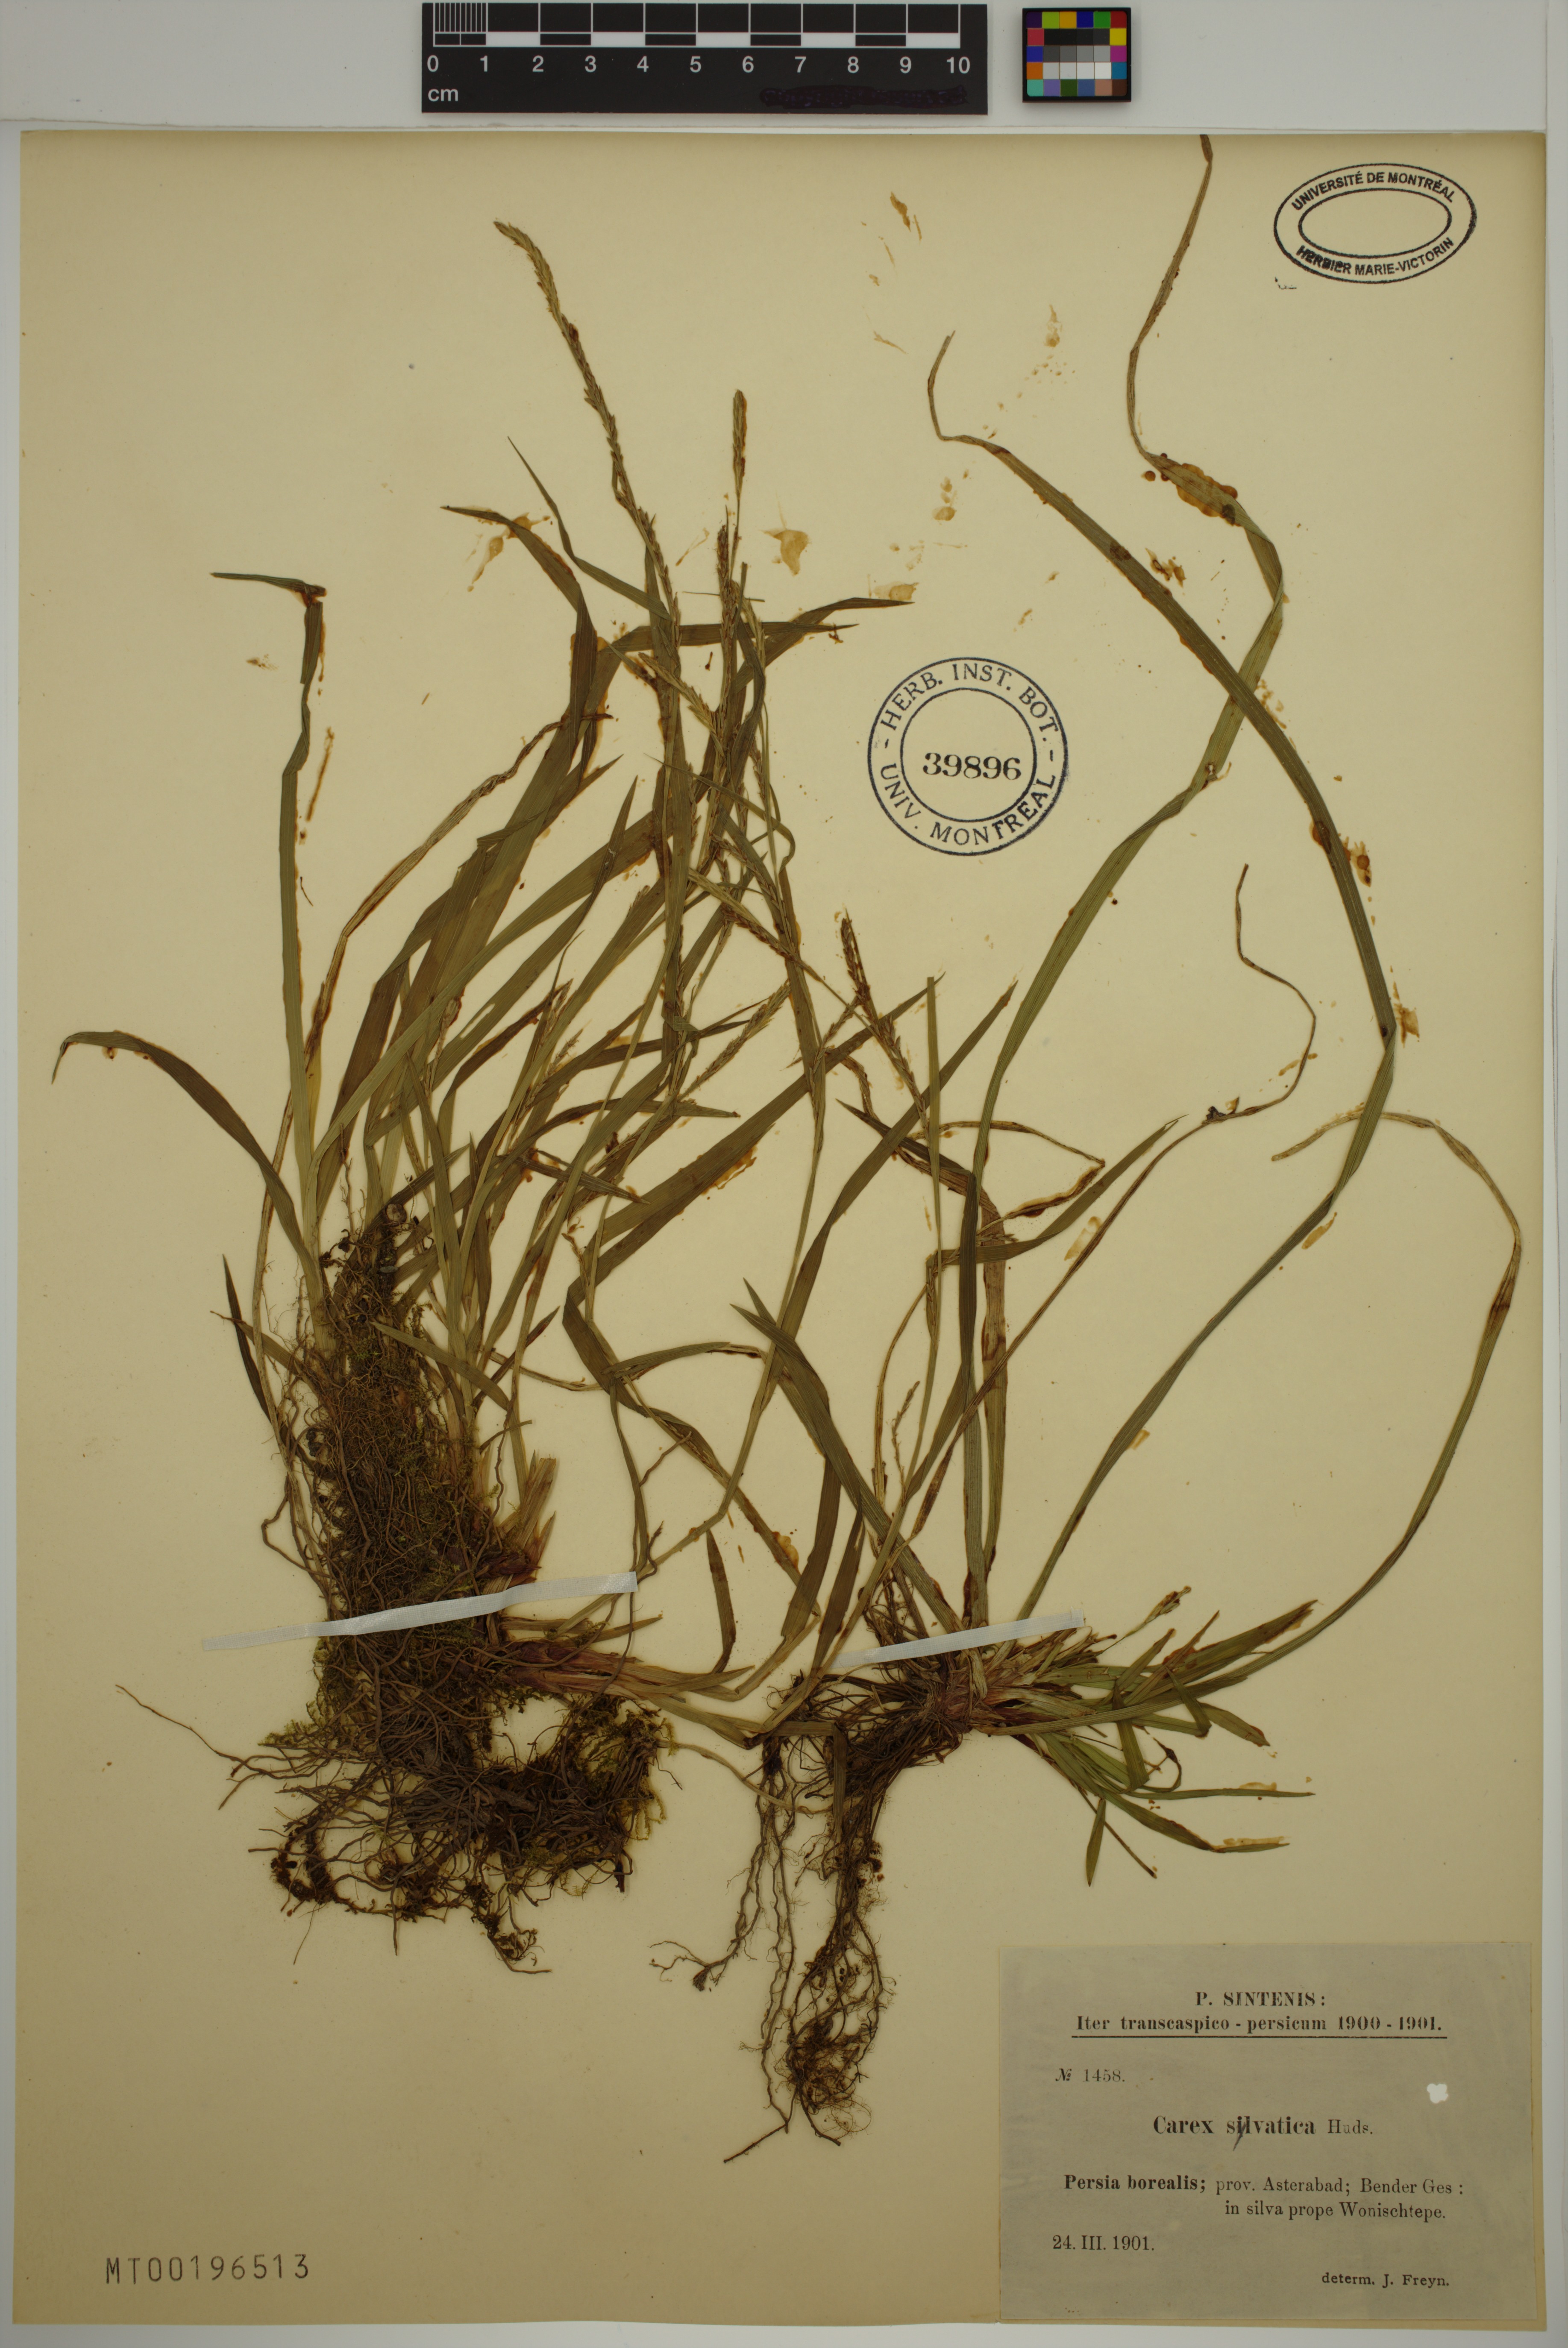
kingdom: Plantae
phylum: Tracheophyta
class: Liliopsida
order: Poales
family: Cyperaceae
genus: Carex
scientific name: Carex sylvatica
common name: Wood-sedge
